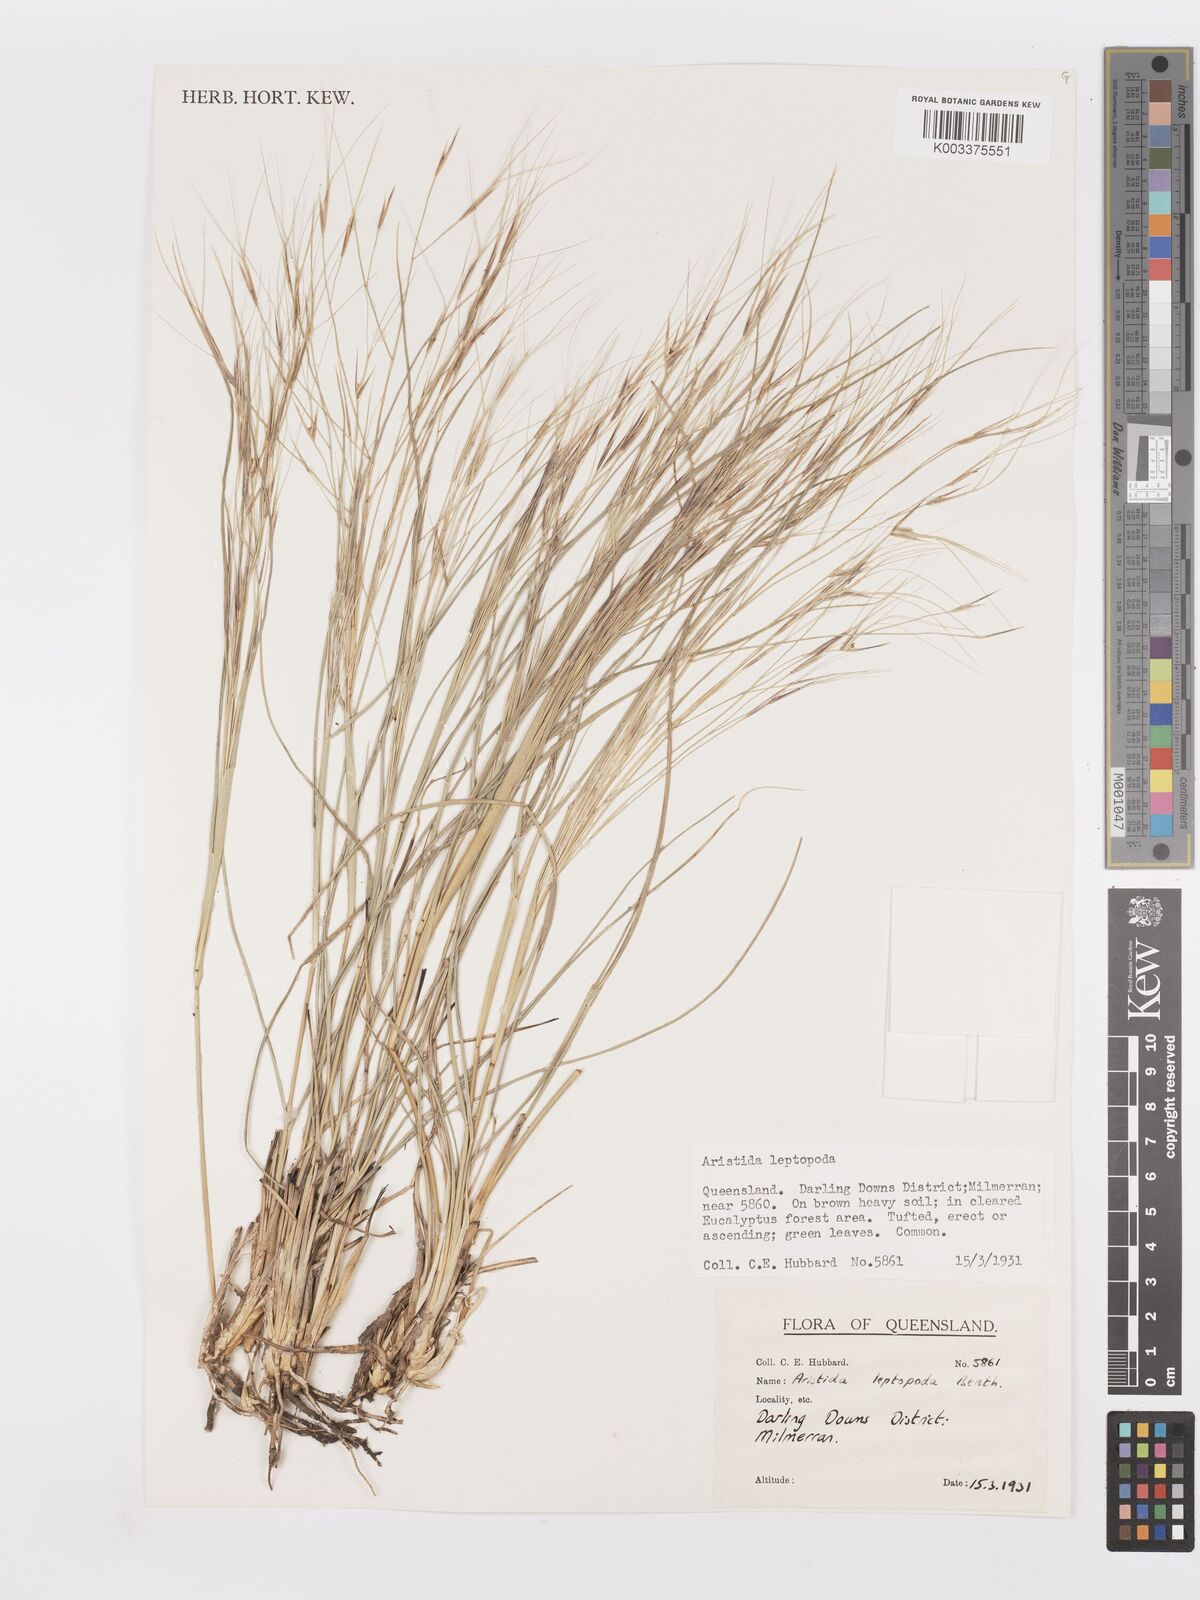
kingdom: Plantae
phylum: Tracheophyta
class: Liliopsida
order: Poales
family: Poaceae
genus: Aristida
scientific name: Aristida leptopoda
